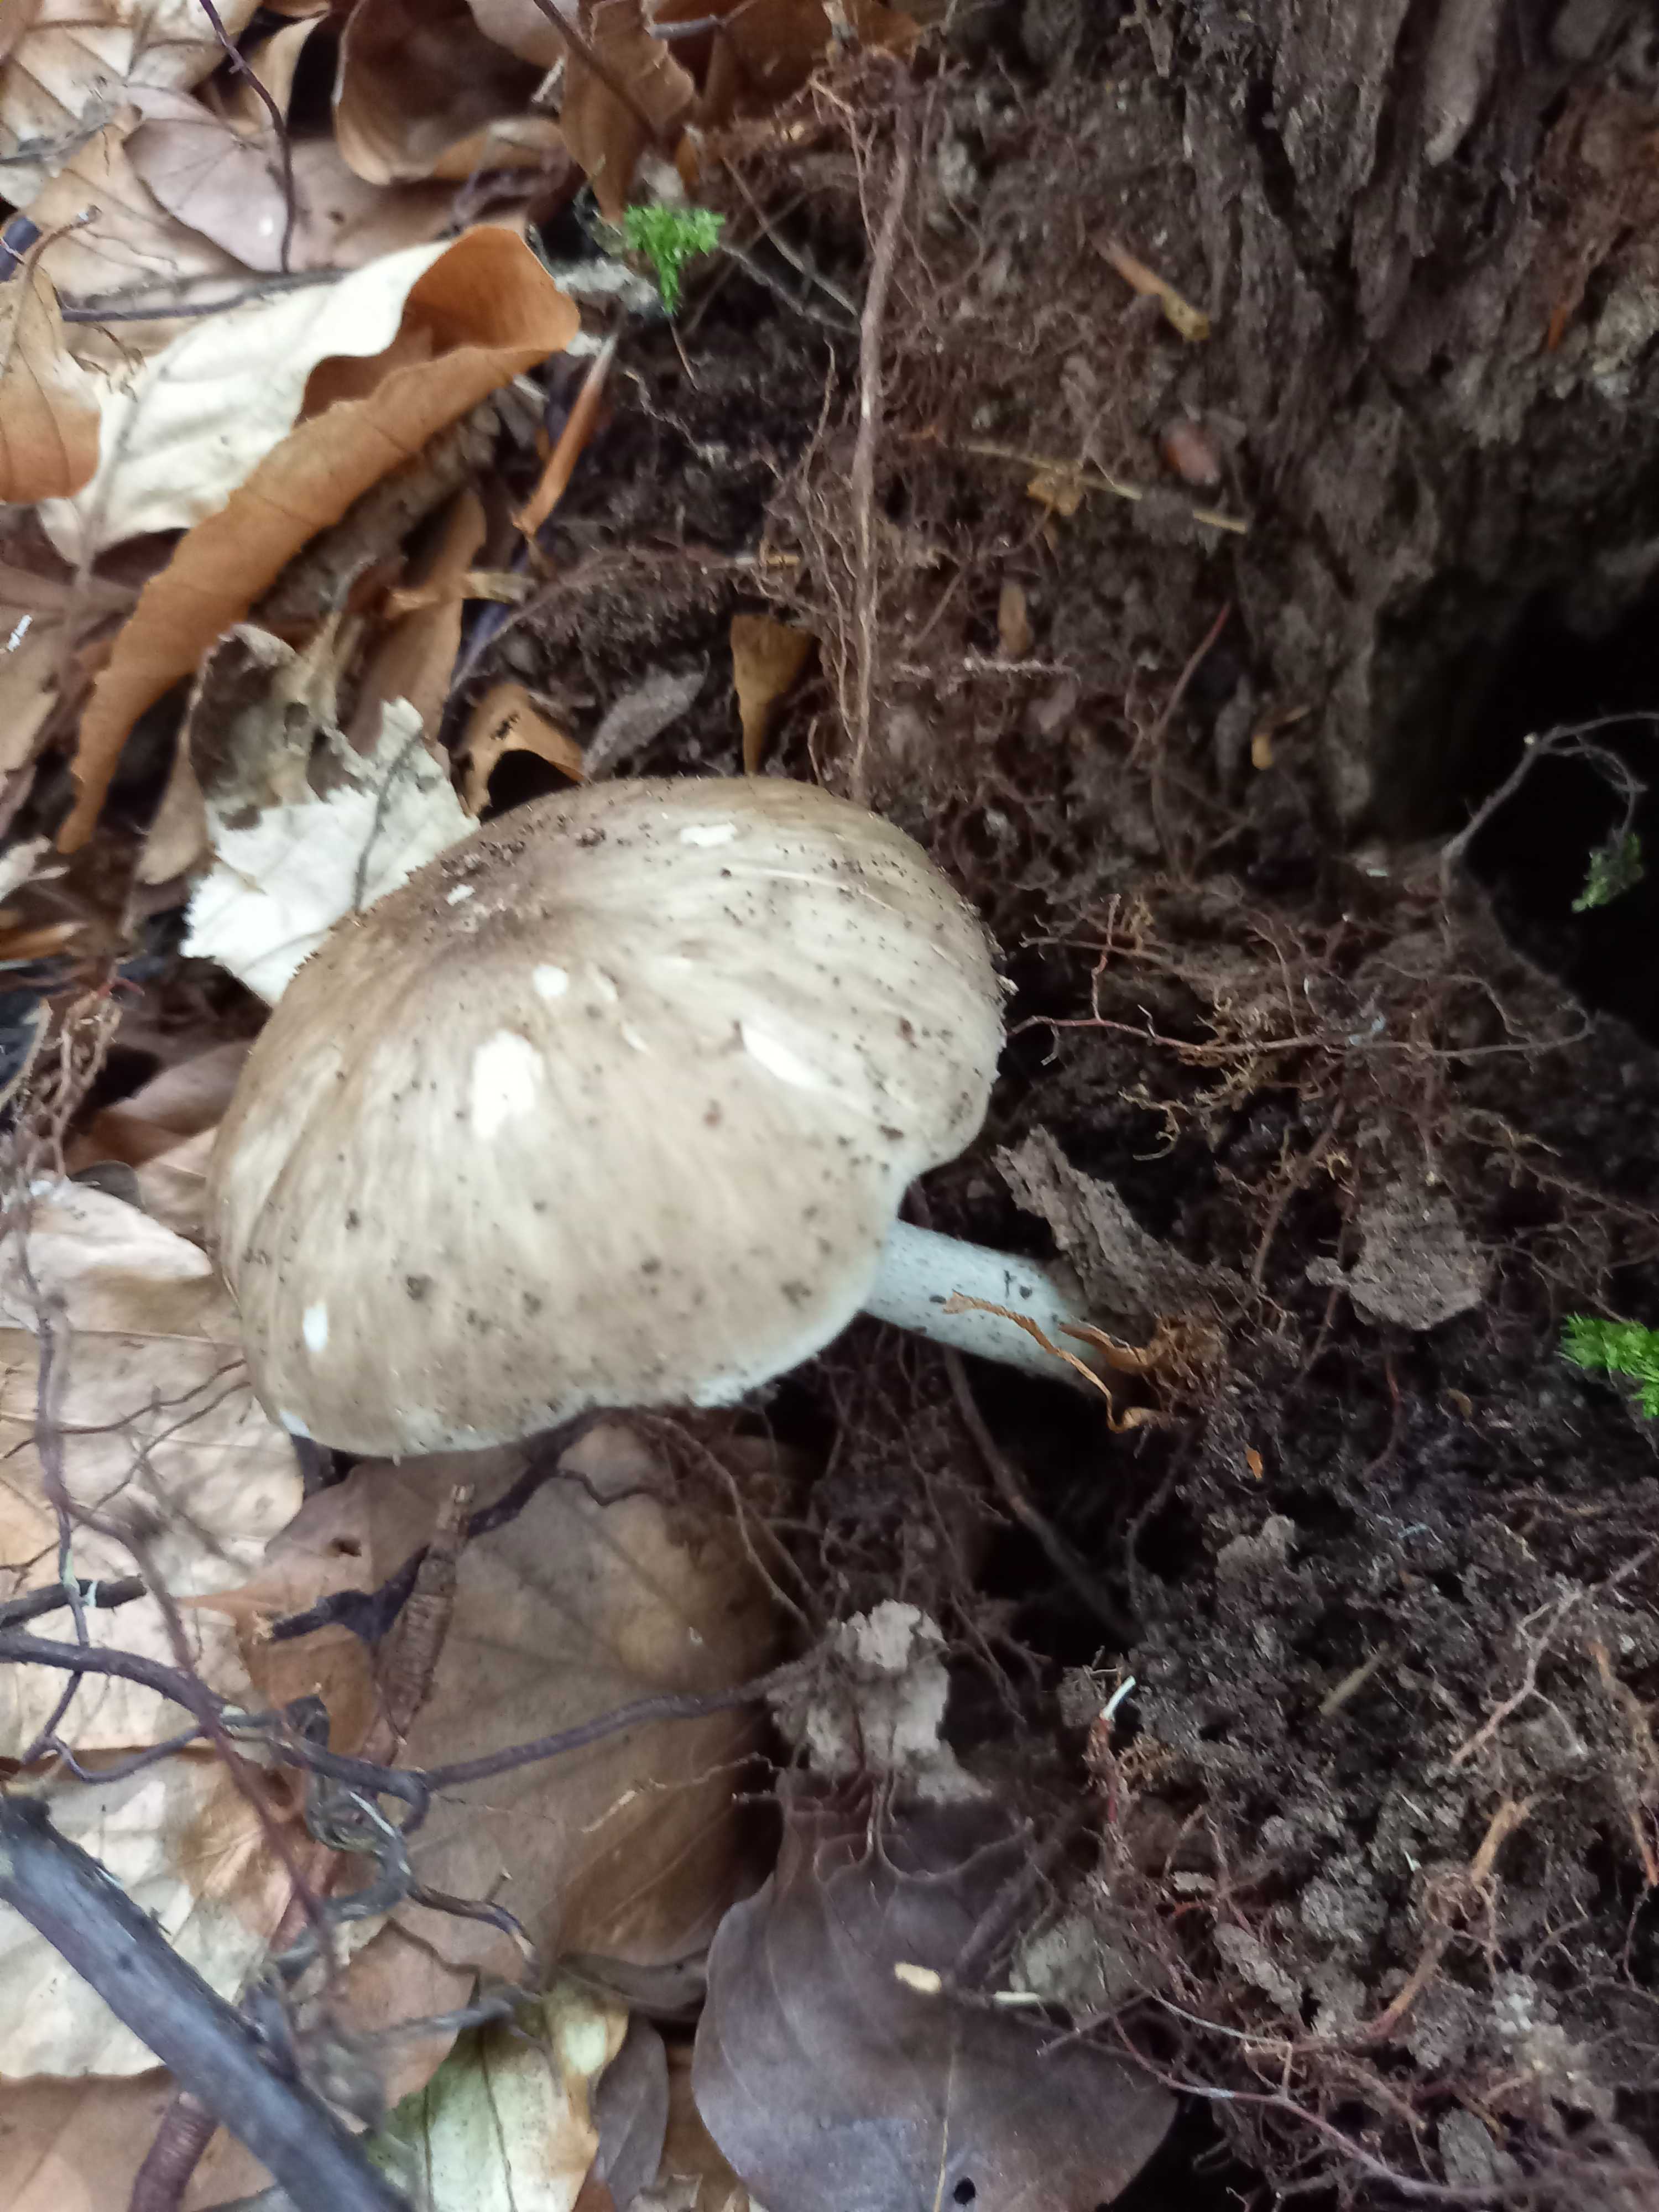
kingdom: Fungi
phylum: Basidiomycota
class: Agaricomycetes
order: Agaricales
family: Pluteaceae
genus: Pluteus
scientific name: Pluteus cervinus
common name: sodfarvet skærmhat
